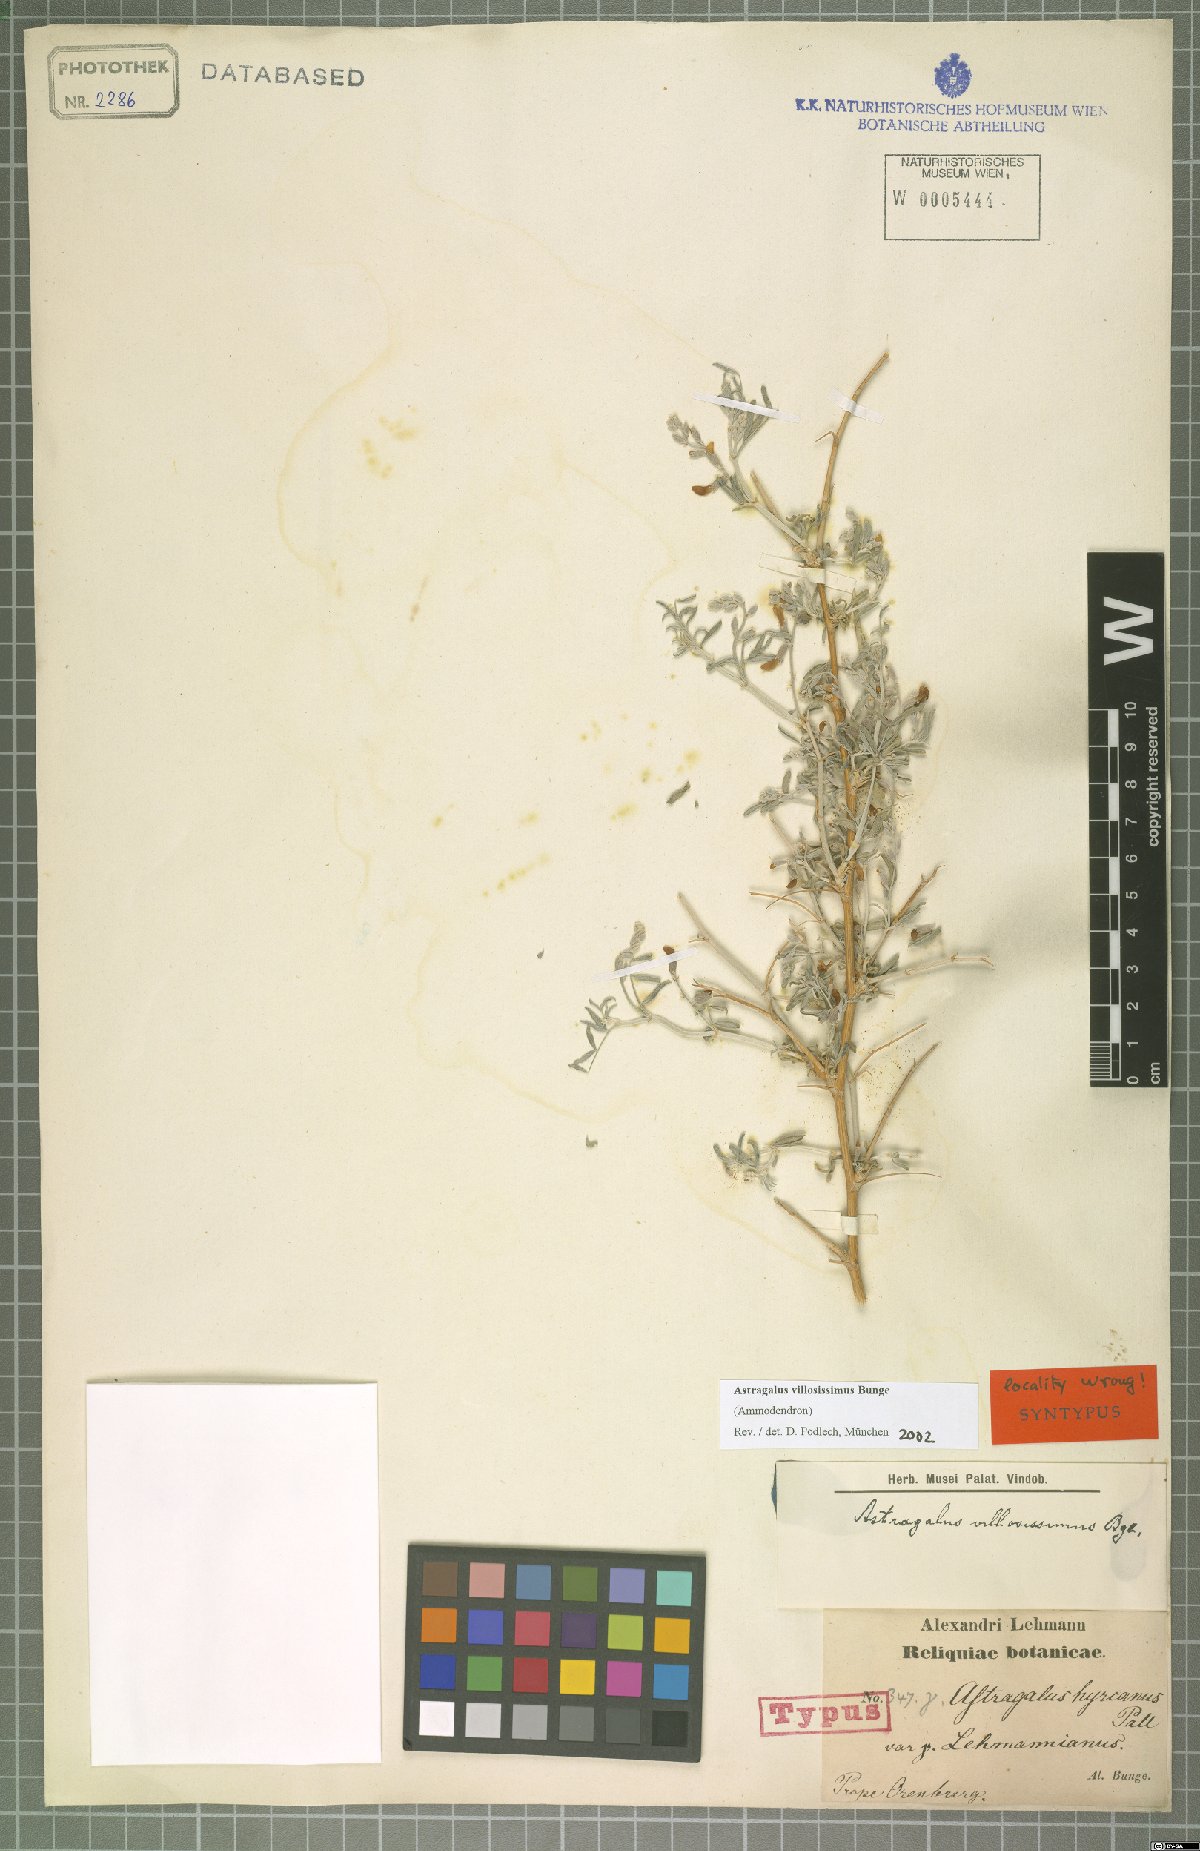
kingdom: Plantae
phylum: Tracheophyta
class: Magnoliopsida
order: Fabales
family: Fabaceae
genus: Astragalus
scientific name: Astragalus villosissimus
